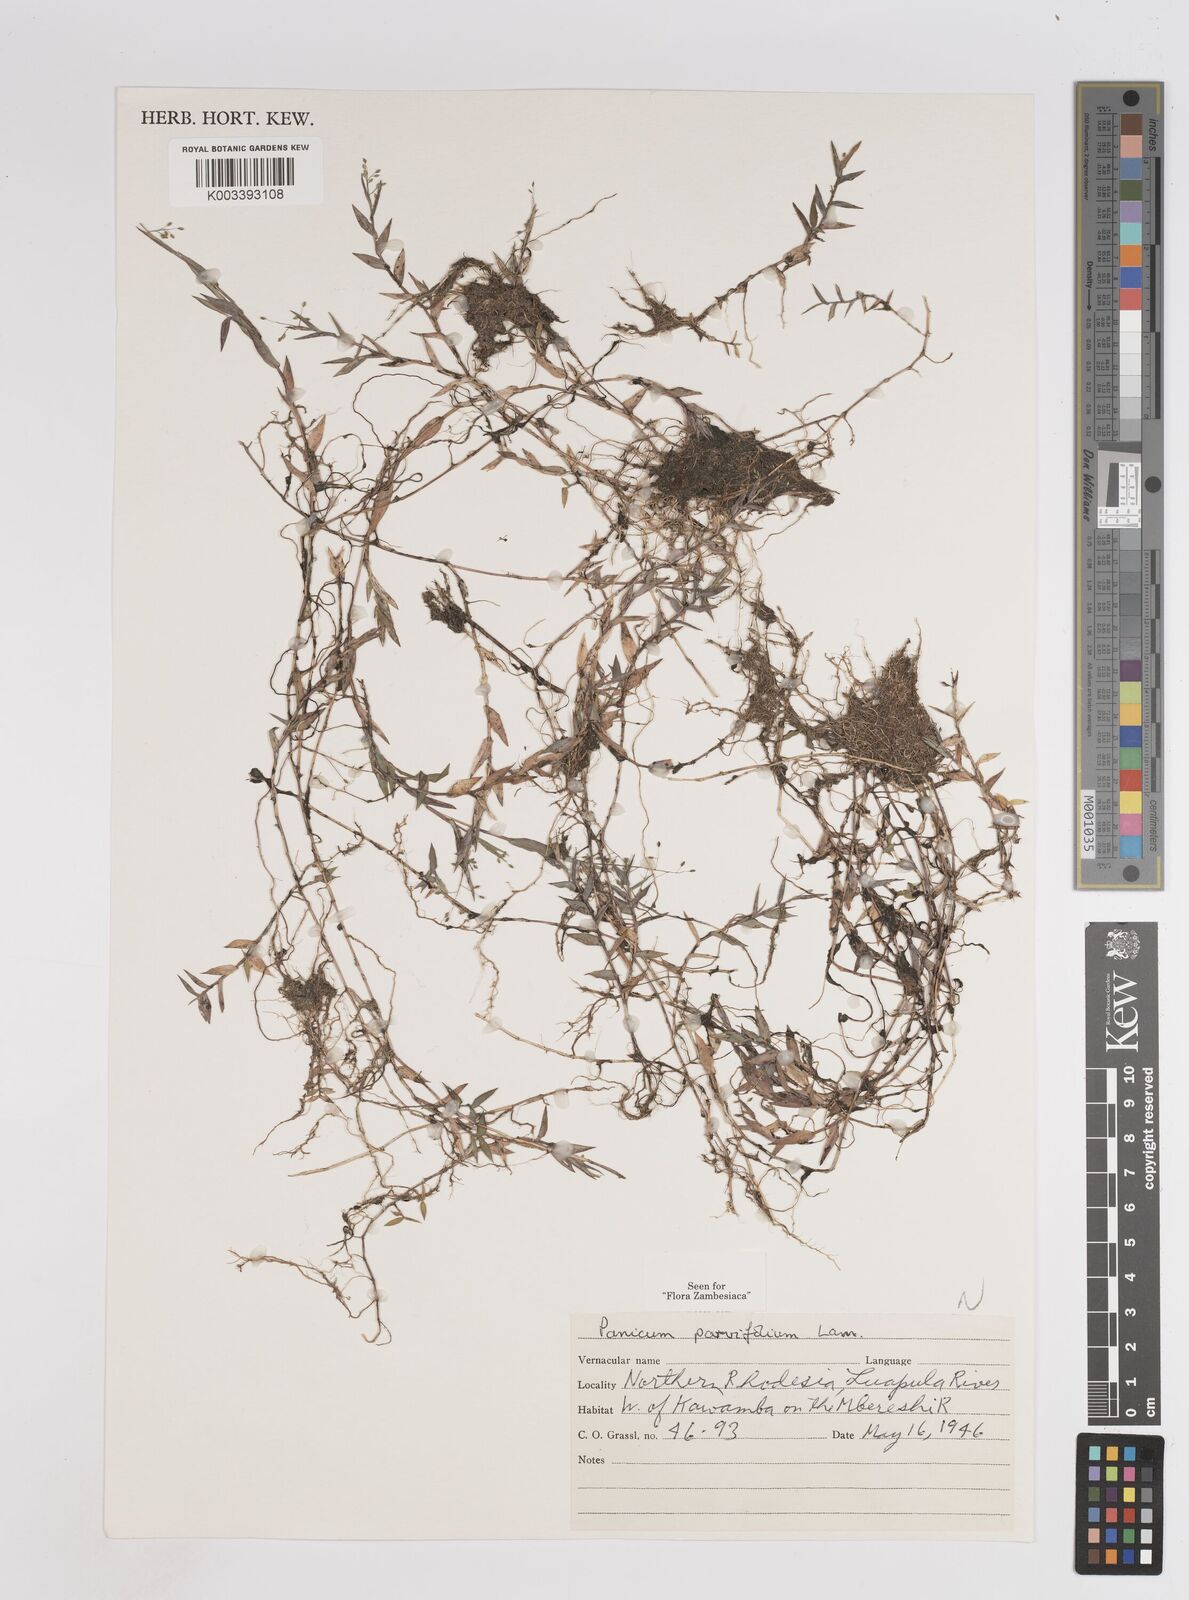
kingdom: Plantae
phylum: Tracheophyta
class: Liliopsida
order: Poales
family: Poaceae
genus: Trichanthecium
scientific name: Trichanthecium parvifolium
